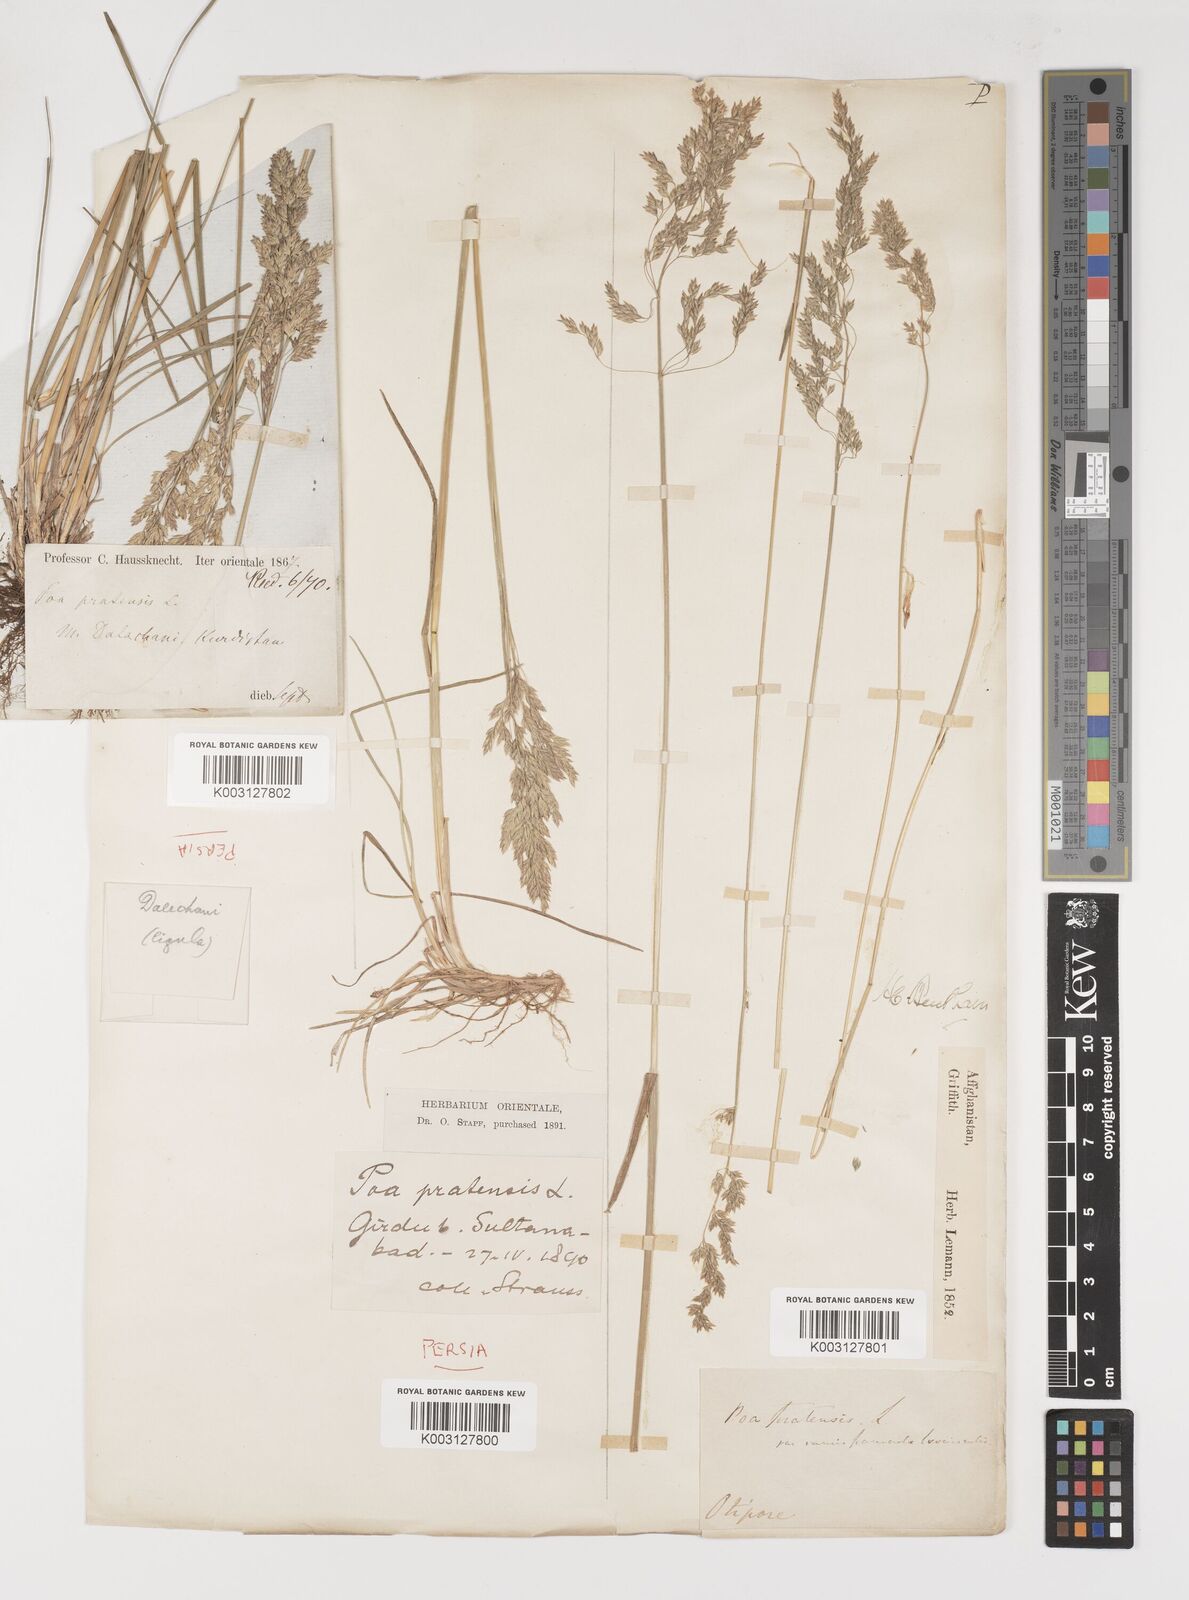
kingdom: Plantae
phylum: Tracheophyta
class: Liliopsida
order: Poales
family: Poaceae
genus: Poa
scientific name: Poa pratensis
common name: Kentucky bluegrass
